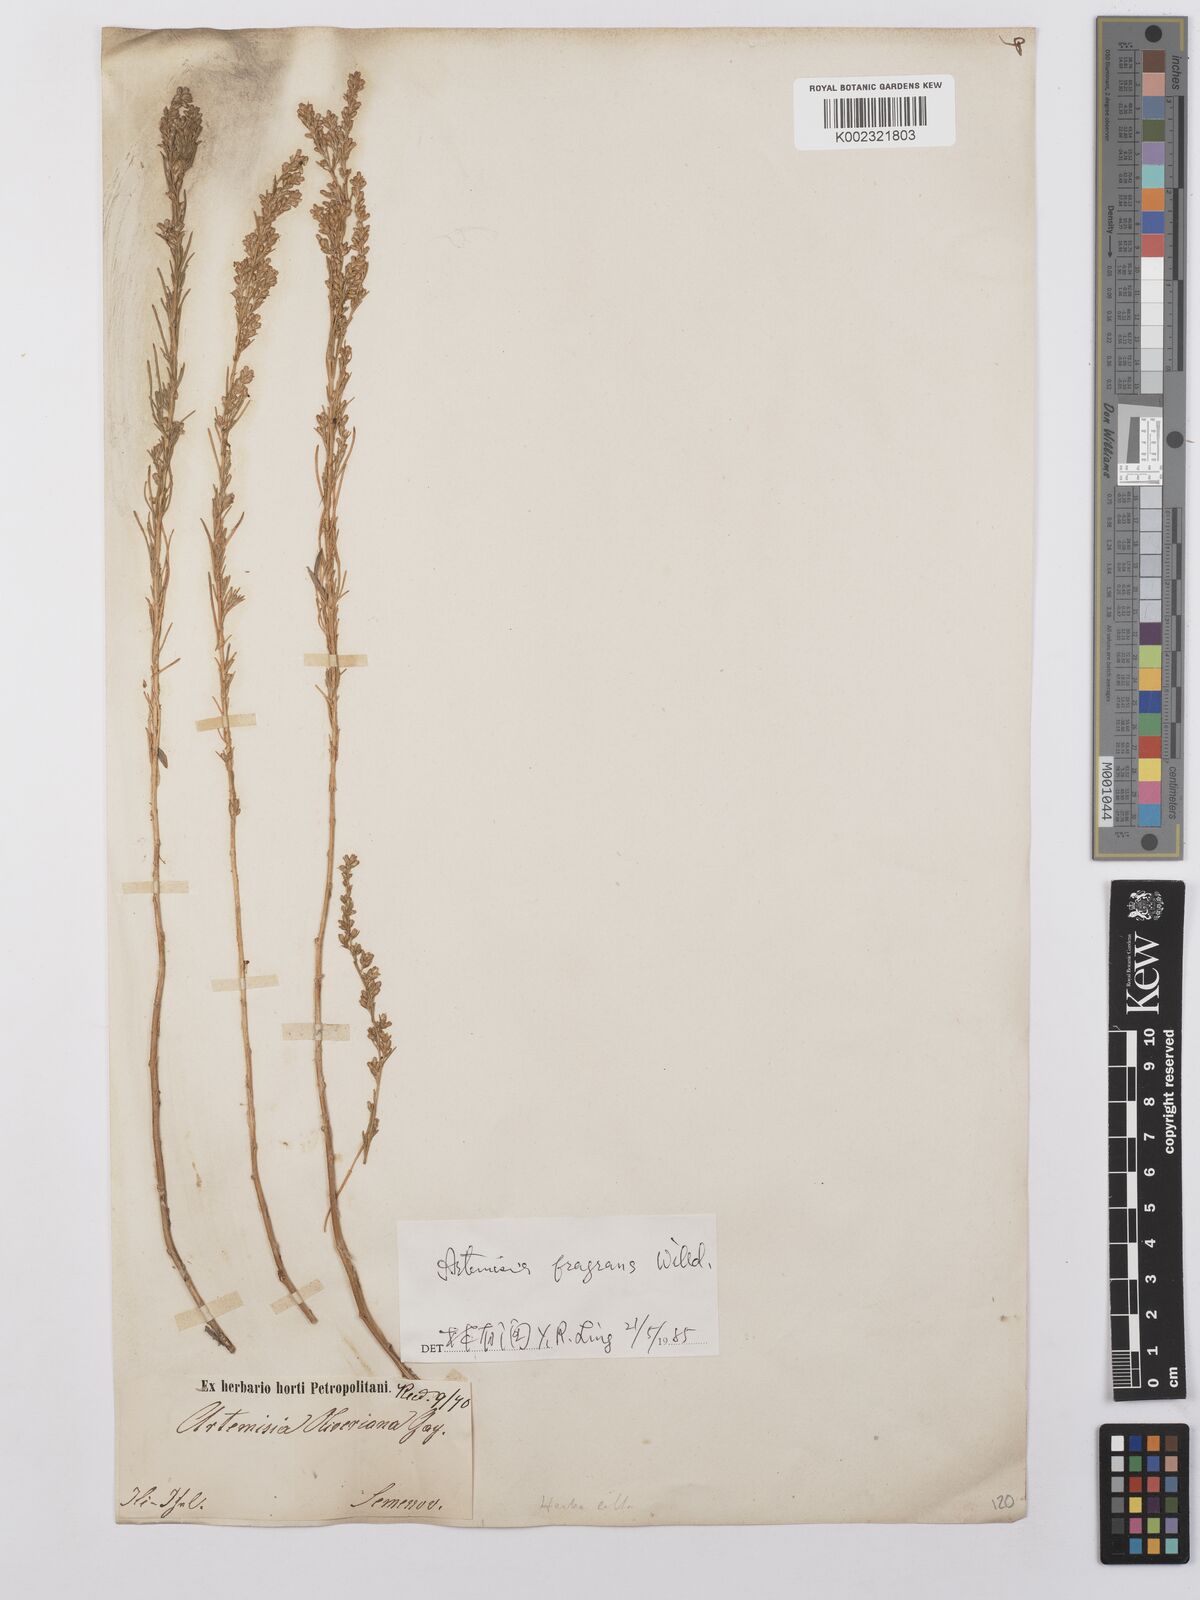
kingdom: Plantae
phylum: Tracheophyta
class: Magnoliopsida
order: Asterales
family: Asteraceae
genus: Artemisia
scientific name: Artemisia fragrans
